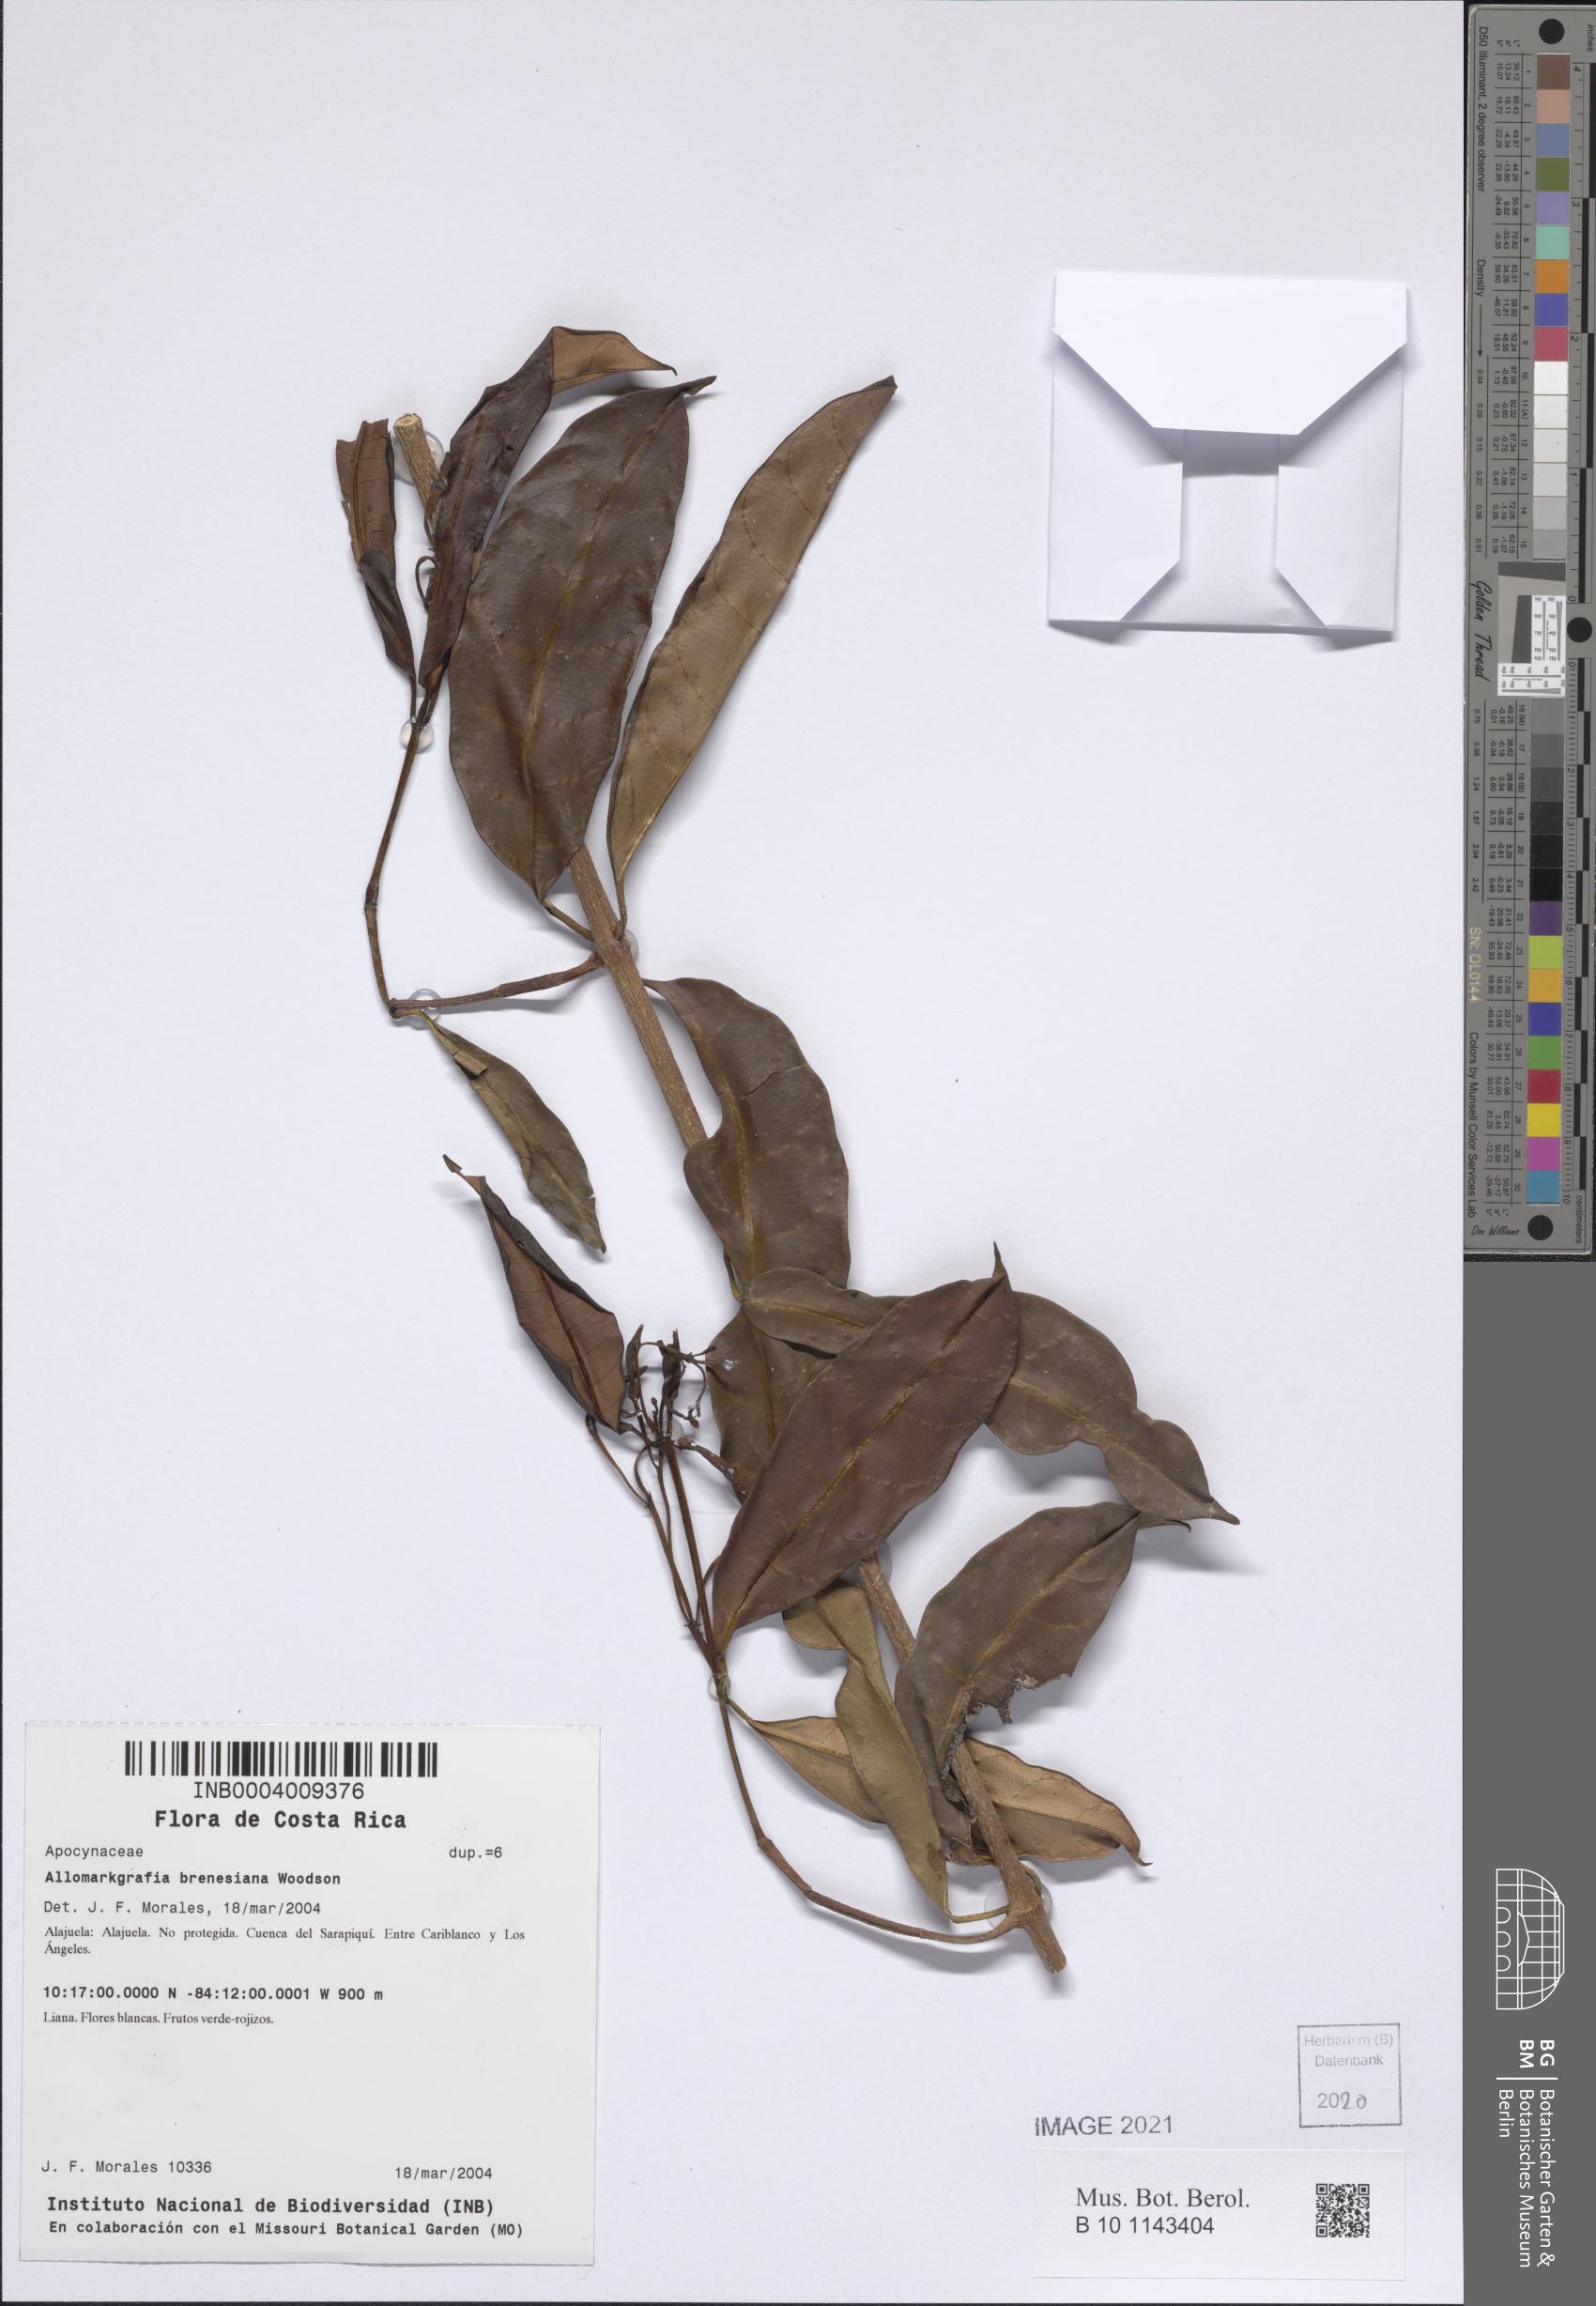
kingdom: Plantae
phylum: Tracheophyta
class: Magnoliopsida
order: Gentianales
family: Apocynaceae
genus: Allomarkgrafia
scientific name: Allomarkgrafia brenesiana
